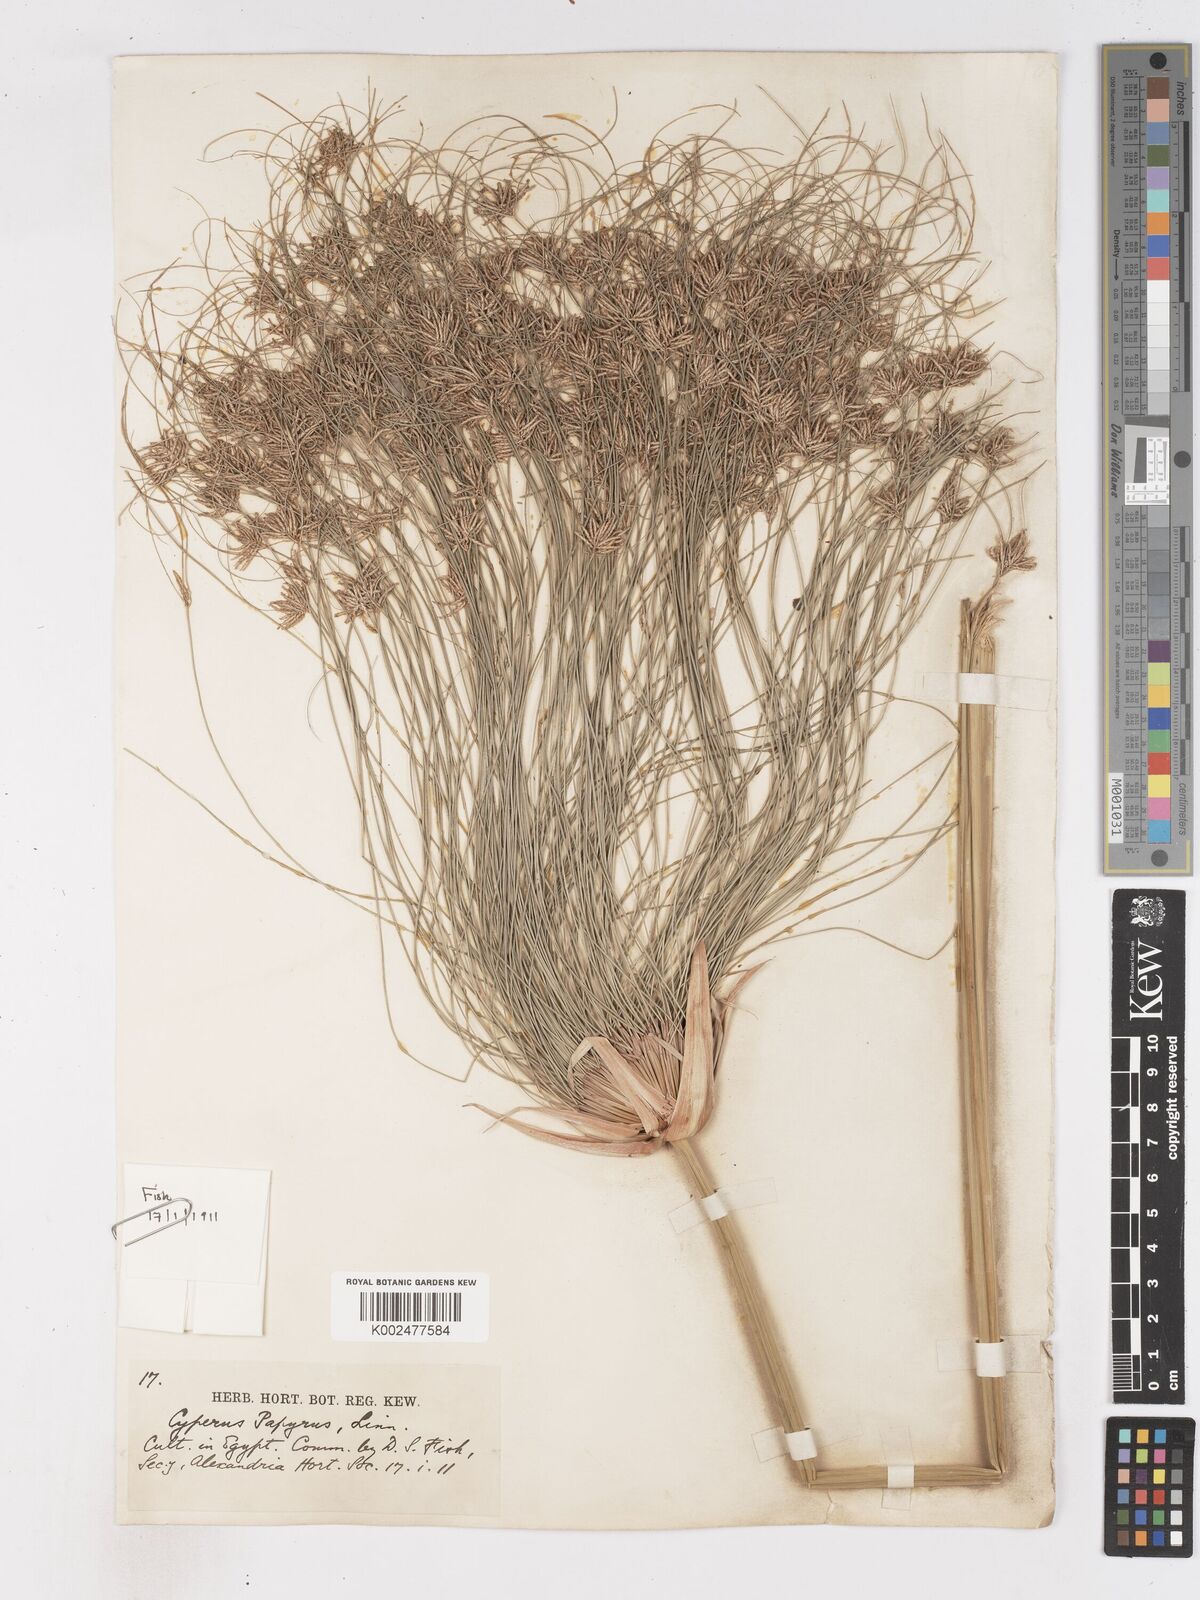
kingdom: Plantae
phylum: Tracheophyta
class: Liliopsida
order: Poales
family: Cyperaceae
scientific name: Cyperaceae
